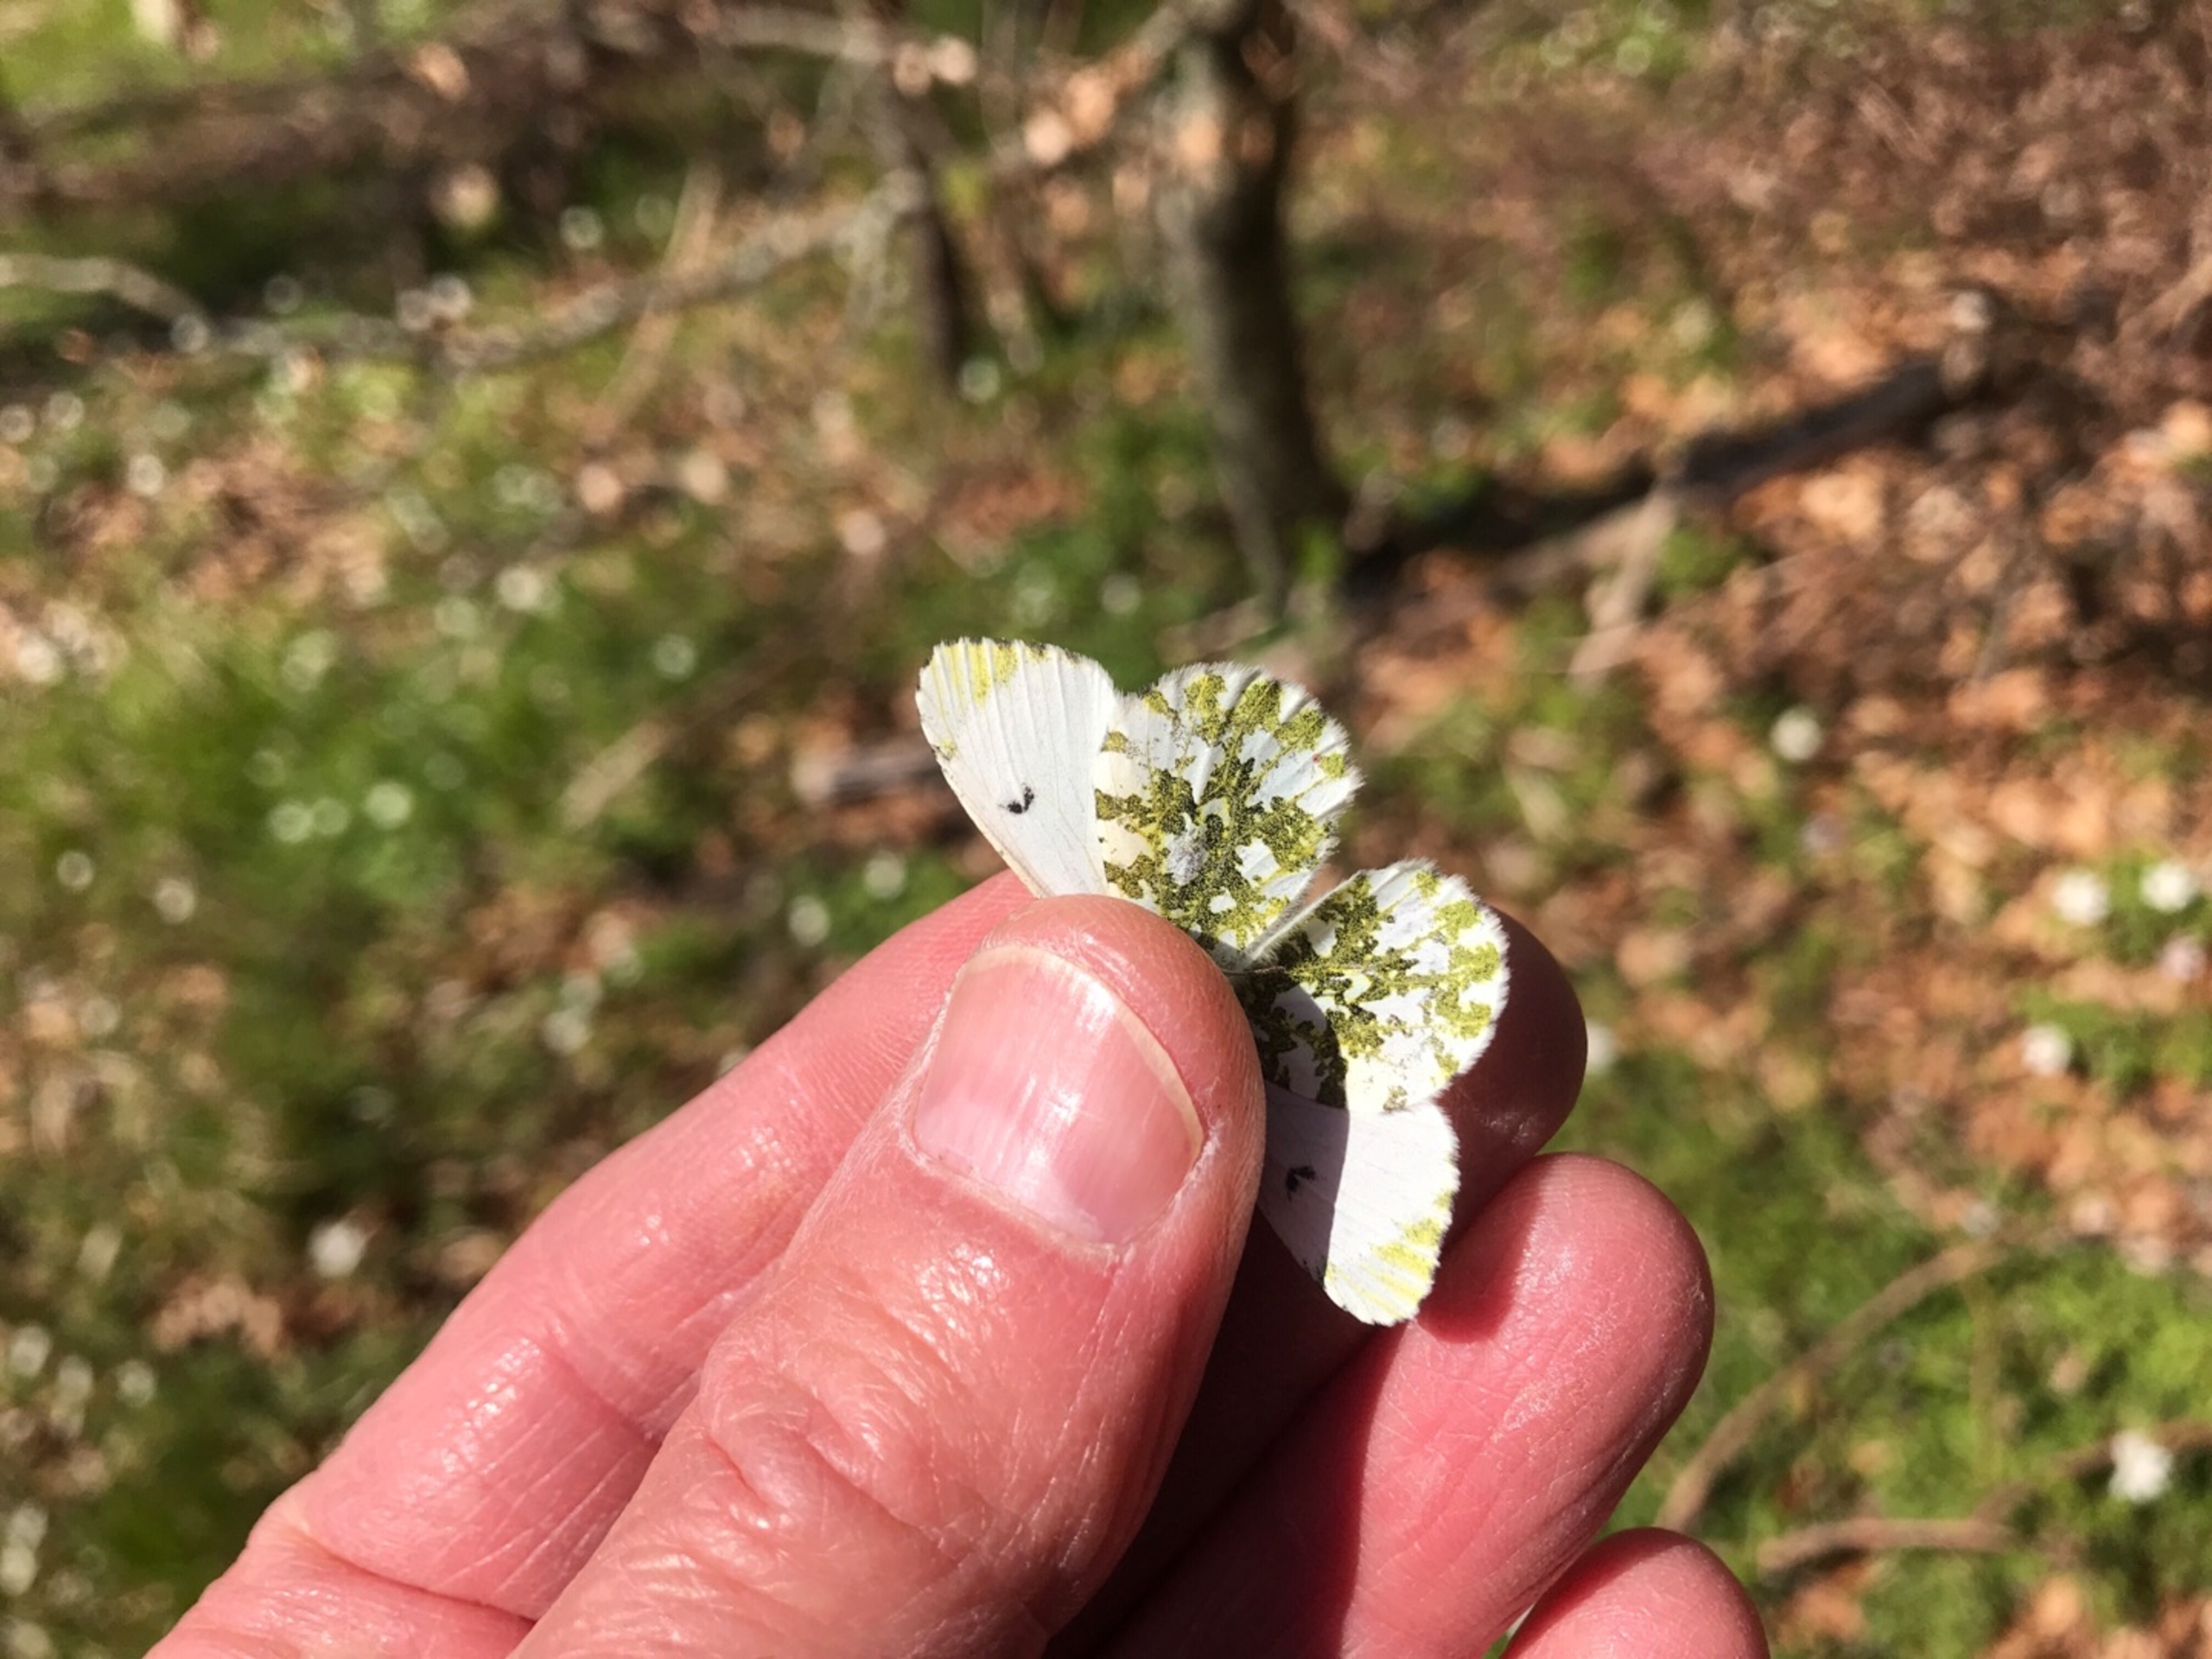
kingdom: Animalia
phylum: Arthropoda
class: Insecta
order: Lepidoptera
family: Pieridae
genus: Anthocharis
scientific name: Anthocharis cardamines
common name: Aurora
